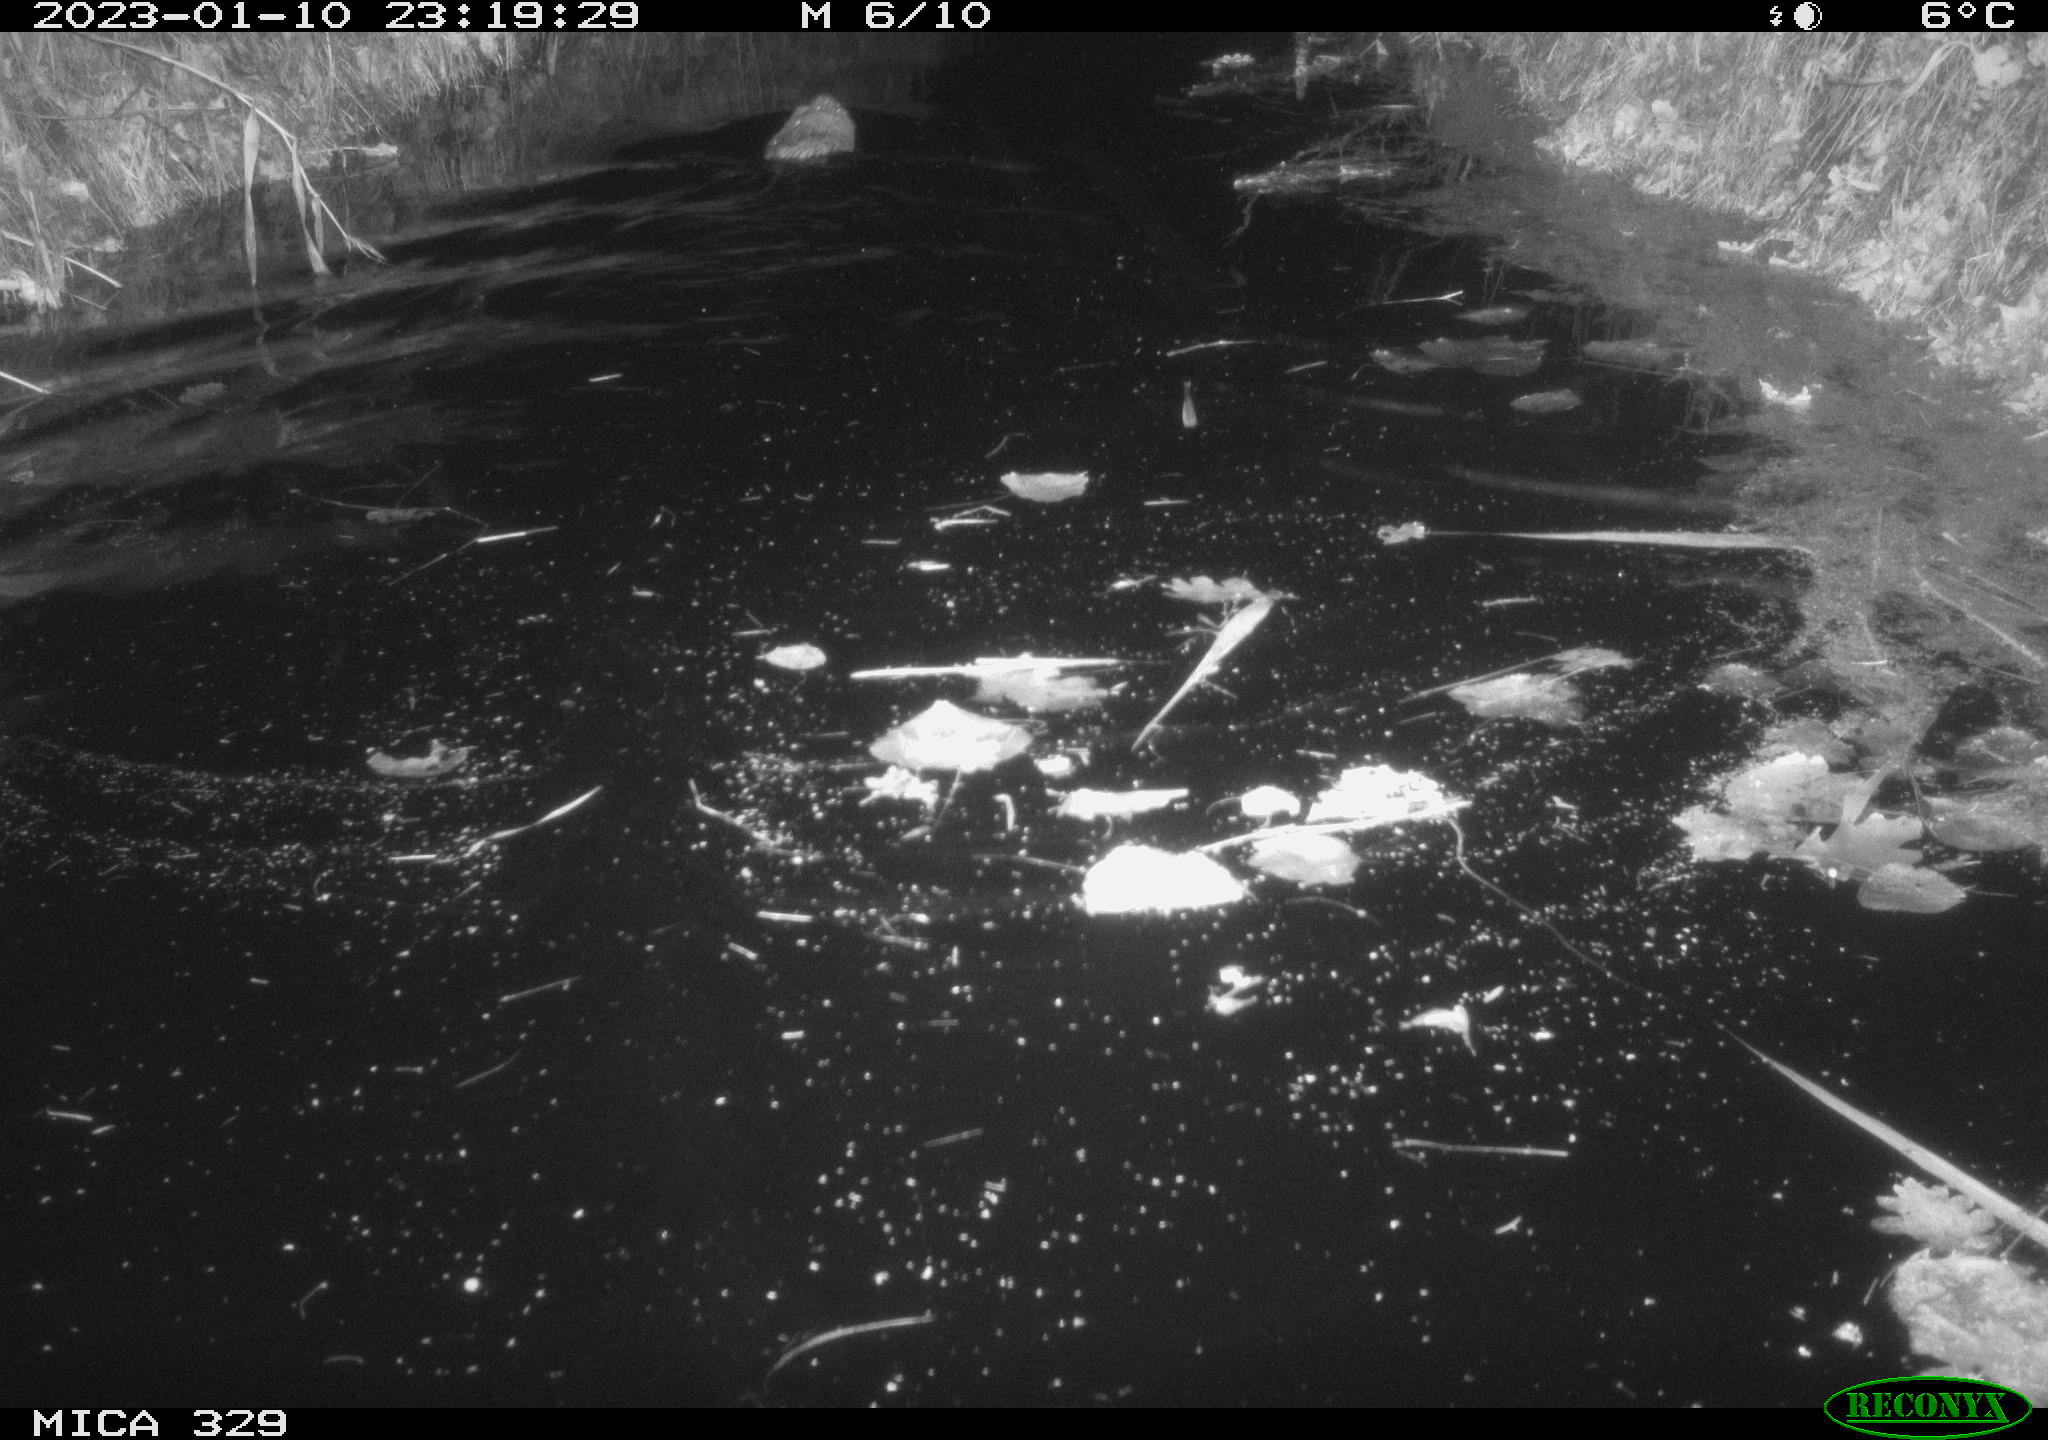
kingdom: Animalia
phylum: Chordata
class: Mammalia
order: Rodentia
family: Cricetidae
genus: Ondatra
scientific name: Ondatra zibethicus
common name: Muskrat
